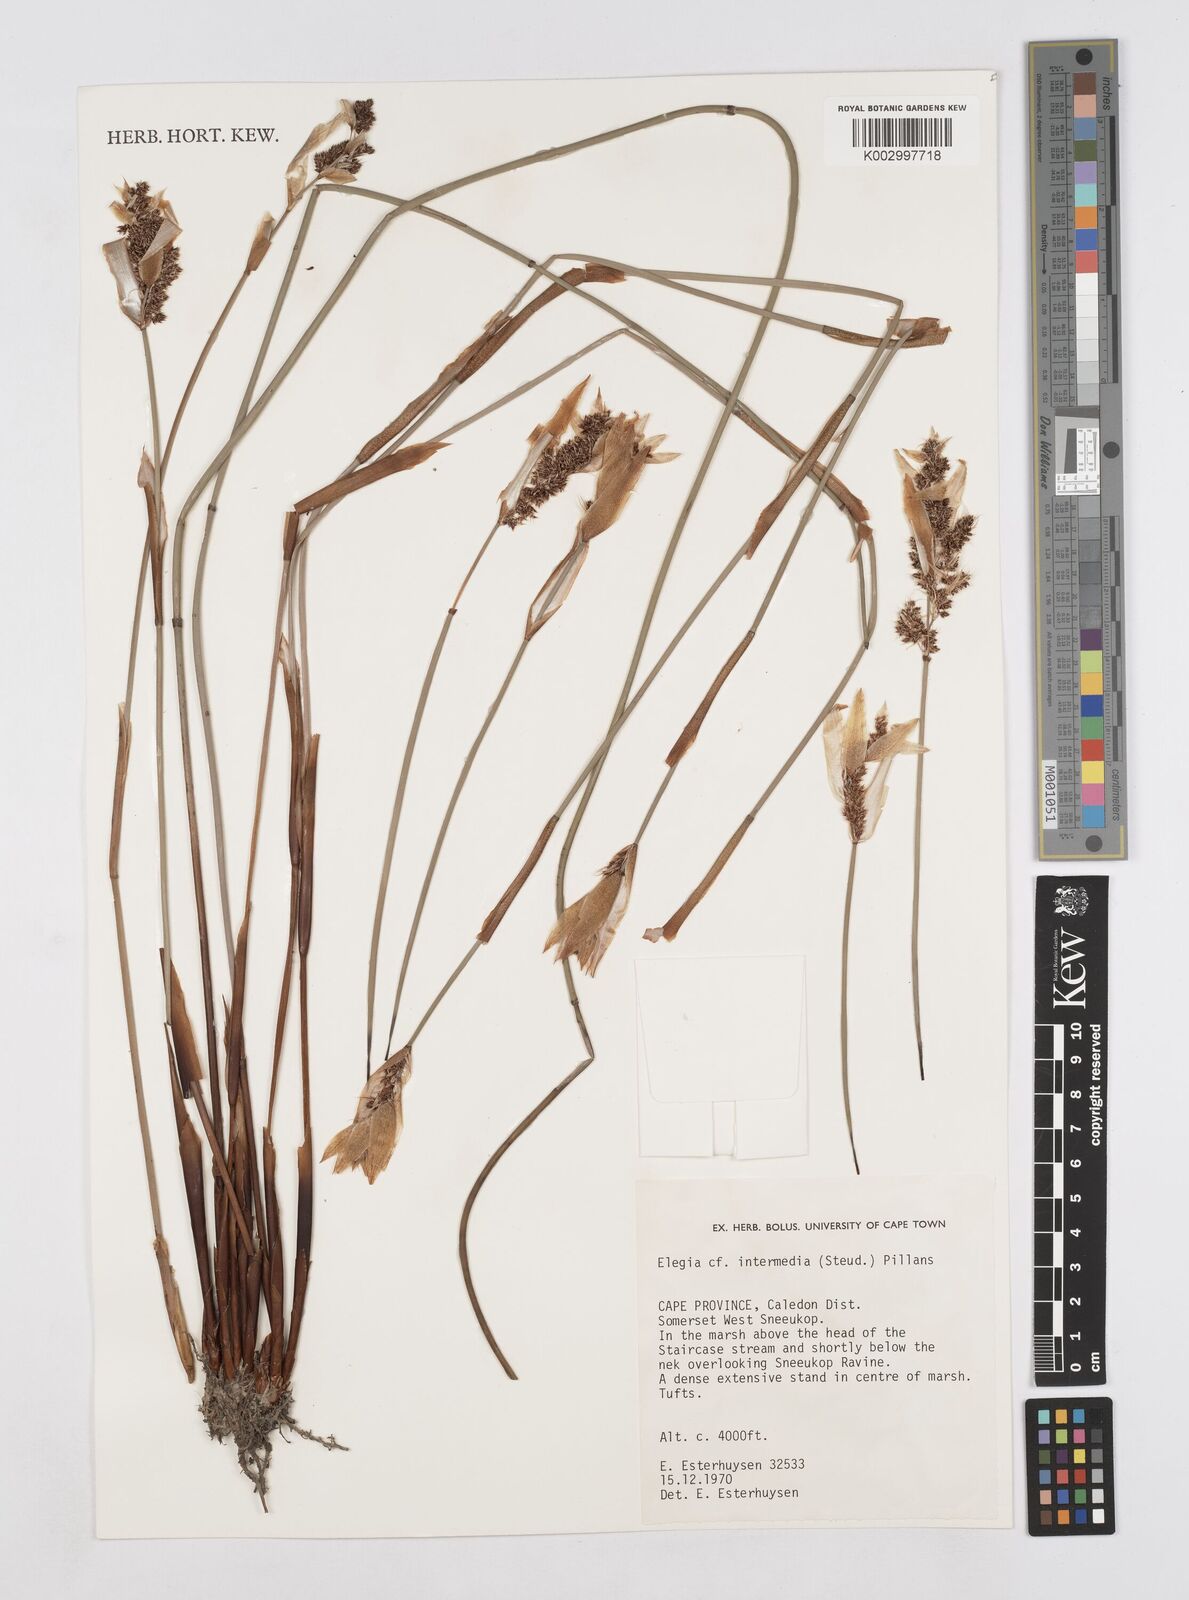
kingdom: Plantae
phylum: Tracheophyta
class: Liliopsida
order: Poales
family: Restionaceae
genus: Elegia
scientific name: Elegia intermedia
